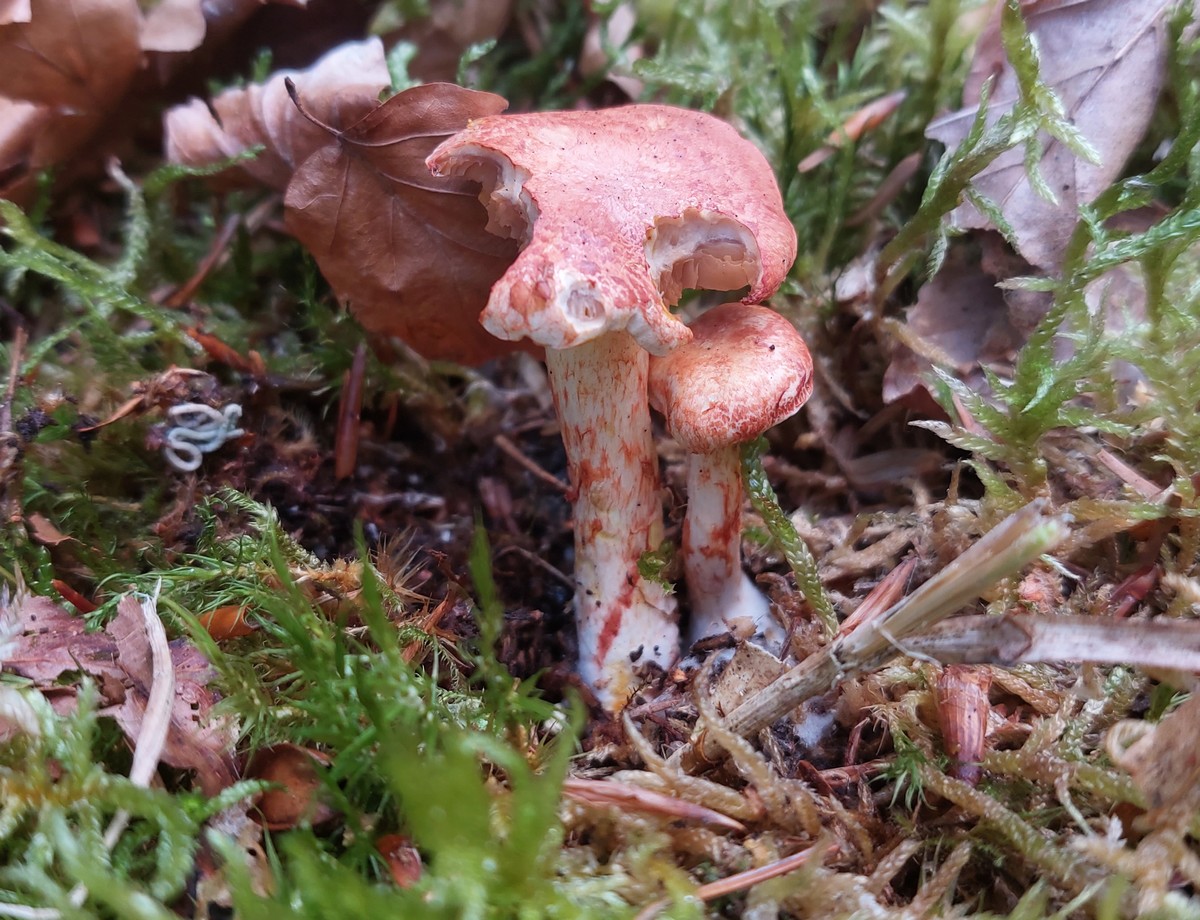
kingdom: Fungi
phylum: Basidiomycota
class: Agaricomycetes
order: Agaricales
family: Cortinariaceae
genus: Cortinarius
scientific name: Cortinarius bolaris
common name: cinnoberskællet slørhat
